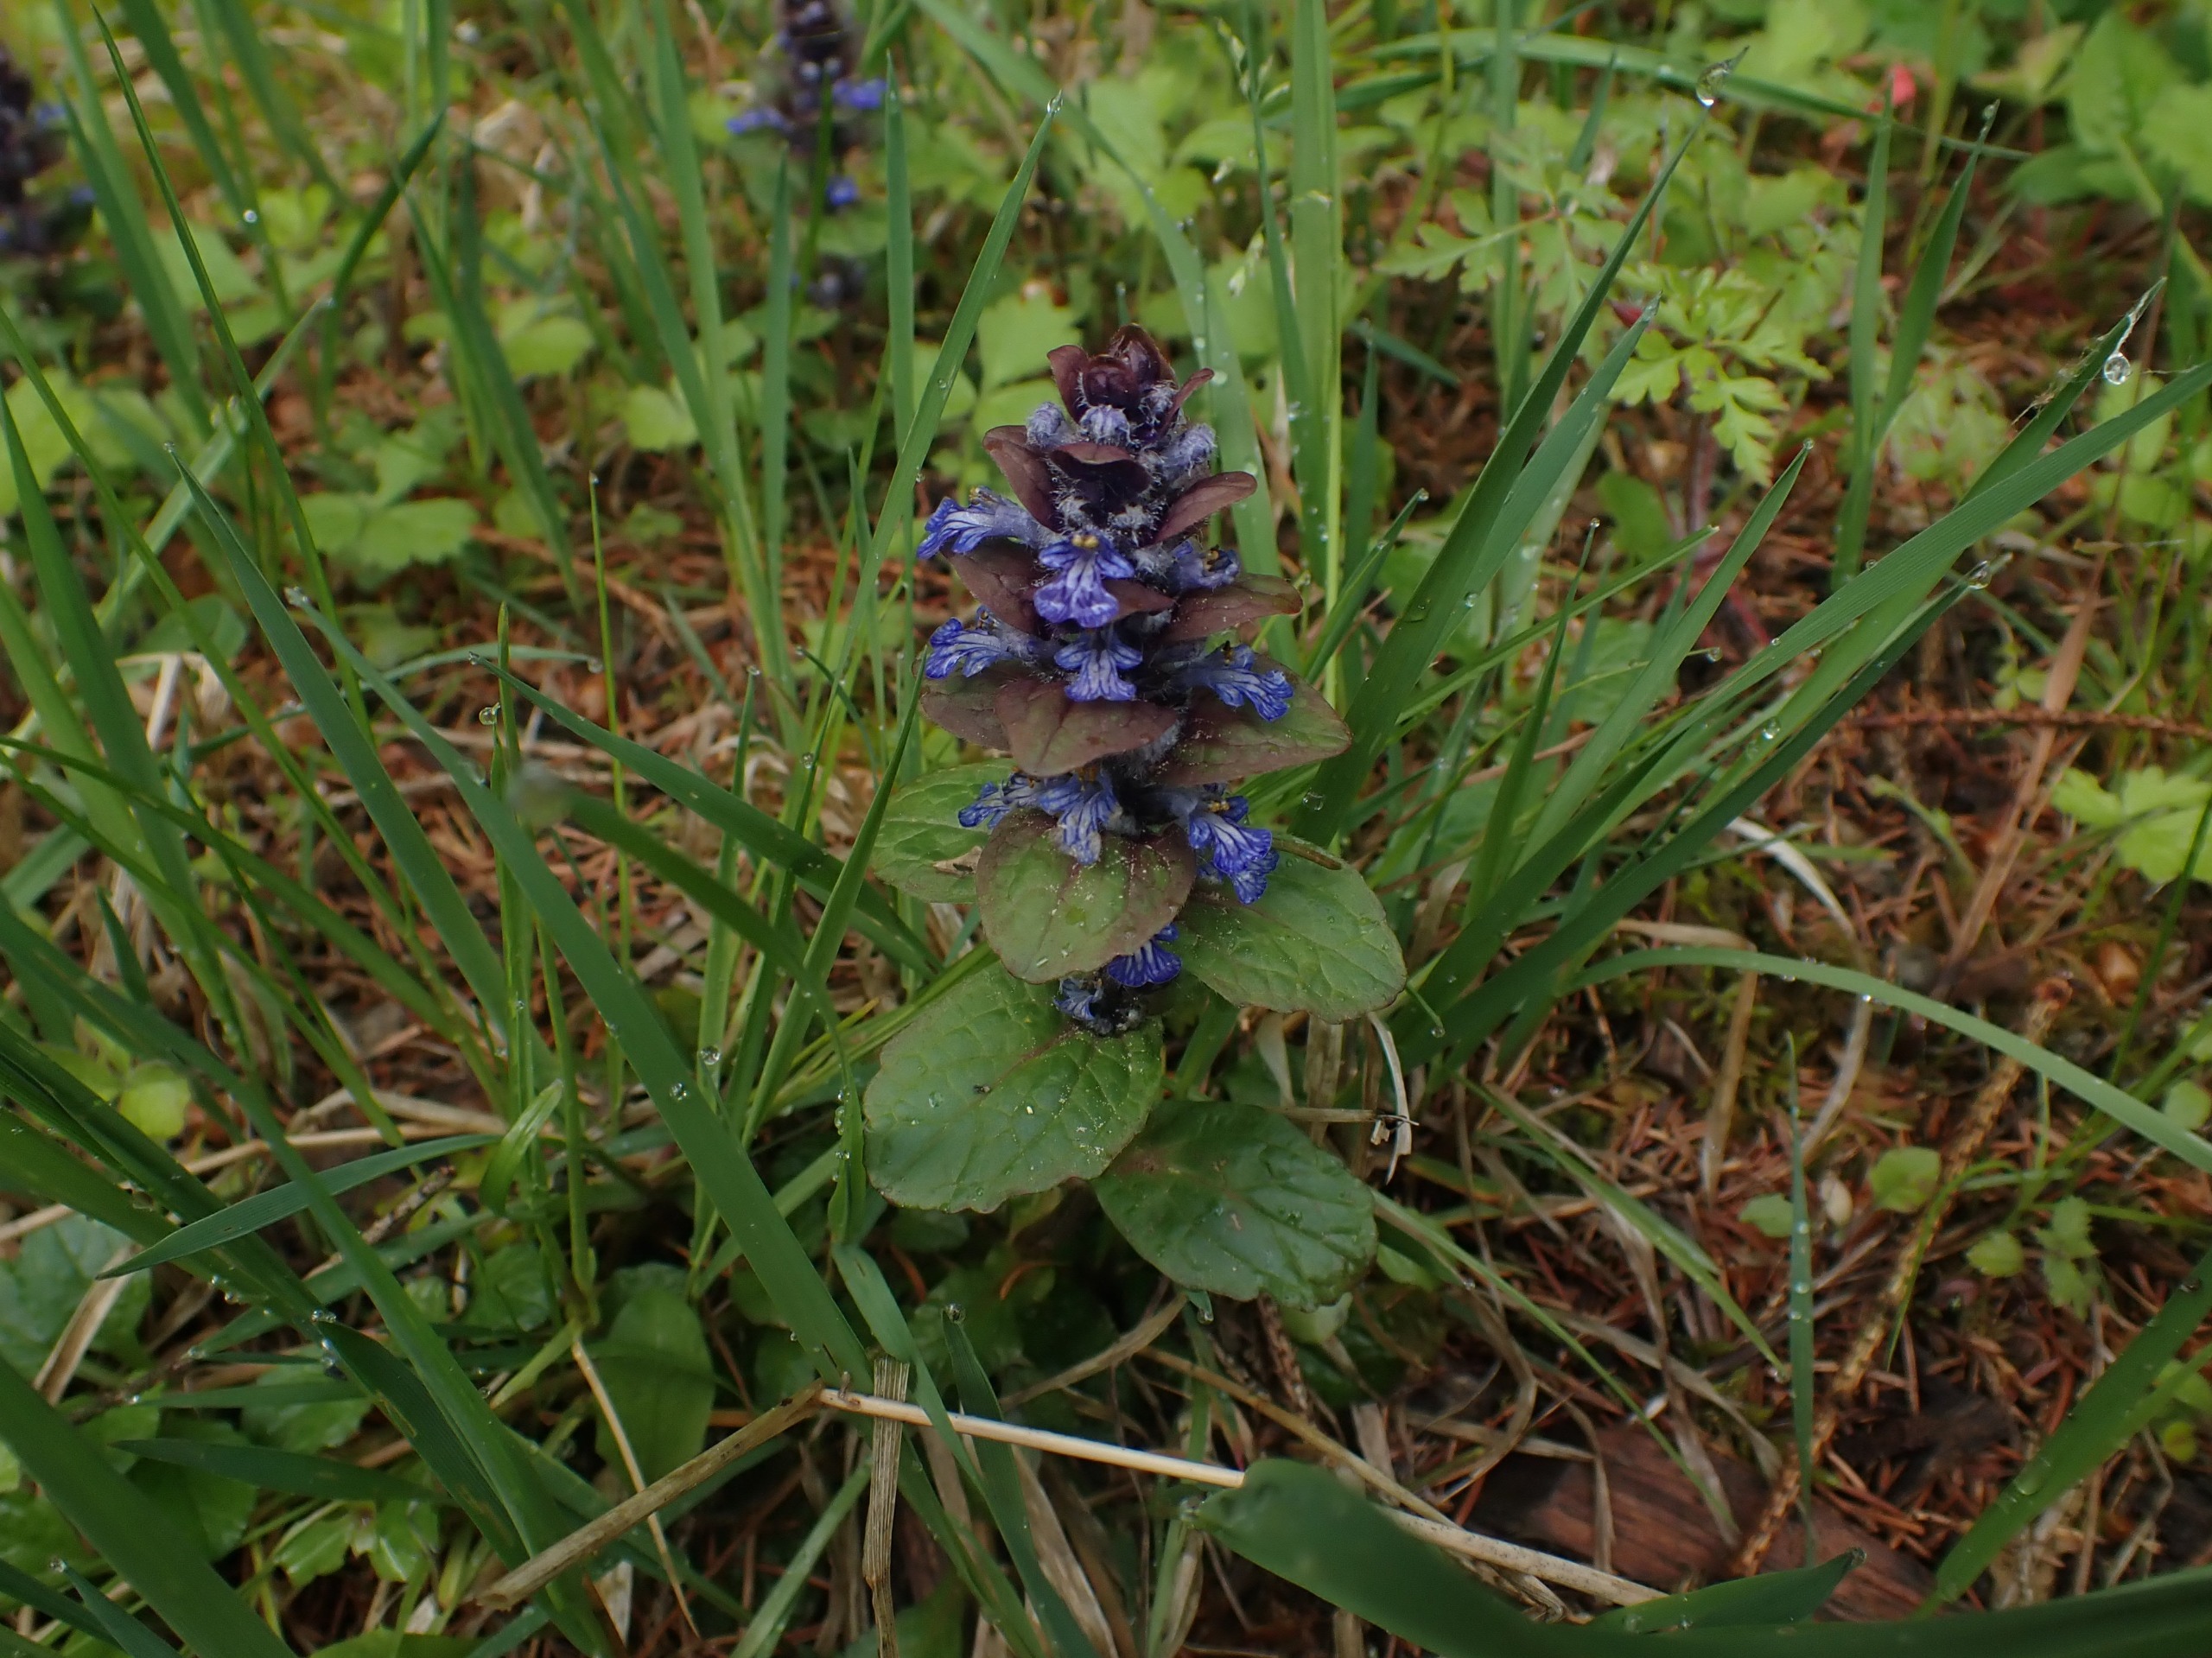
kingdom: Plantae
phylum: Tracheophyta
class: Magnoliopsida
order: Lamiales
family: Lamiaceae
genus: Ajuga
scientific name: Ajuga reptans
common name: Krybende læbeløs
